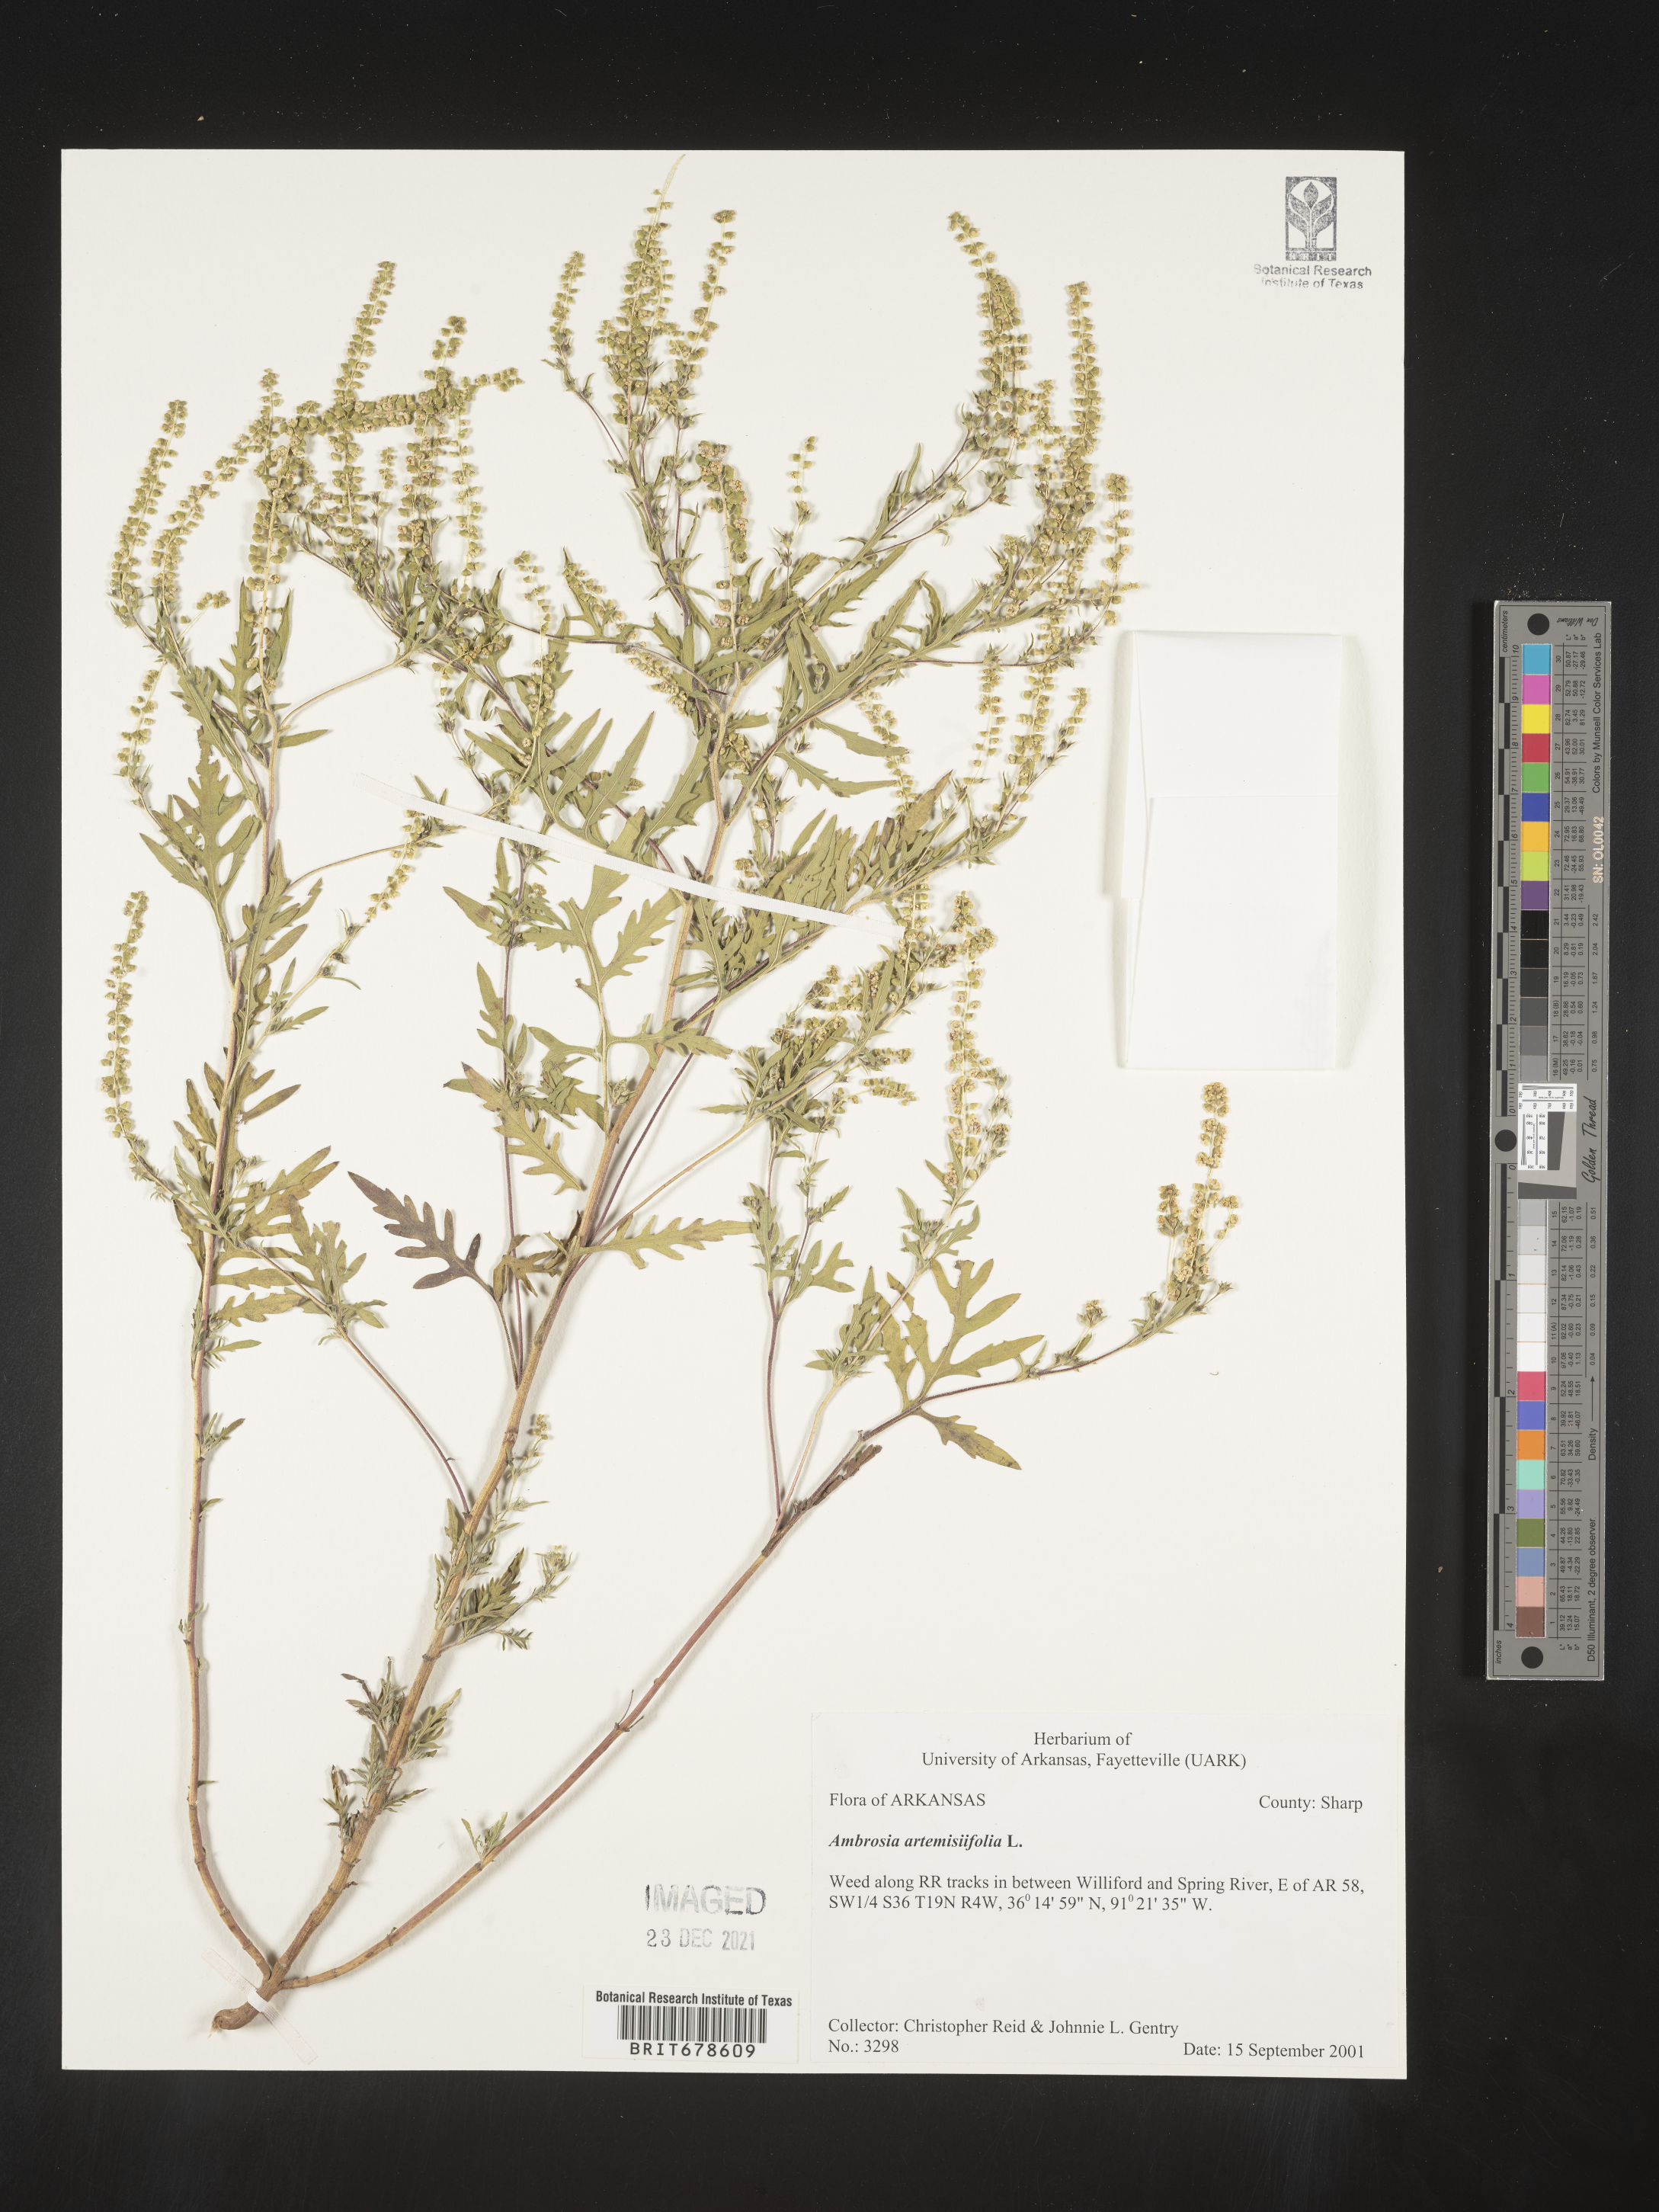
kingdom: Plantae
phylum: Tracheophyta
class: Magnoliopsida
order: Asterales
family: Asteraceae
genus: Ambrosia
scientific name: Ambrosia polystachya
